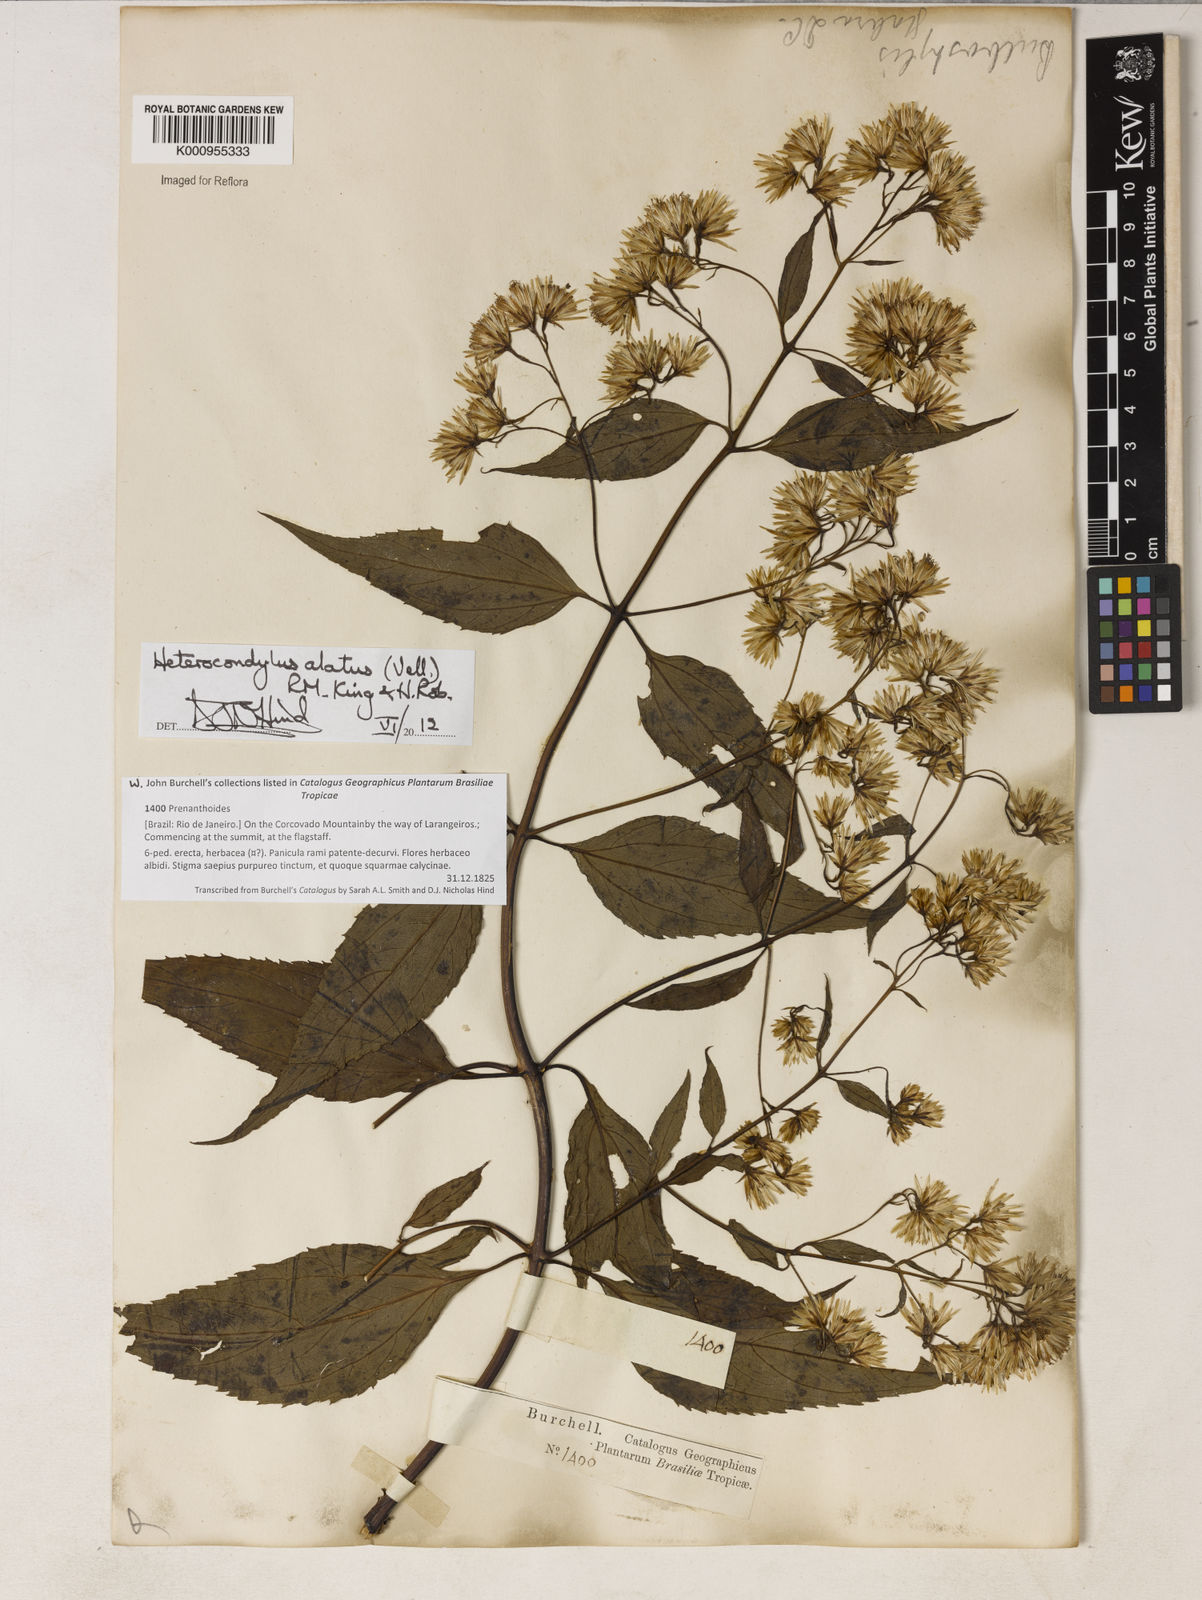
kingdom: Plantae
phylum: Tracheophyta
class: Magnoliopsida
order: Asterales
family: Asteraceae
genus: Heterocondylus
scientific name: Heterocondylus alatus
